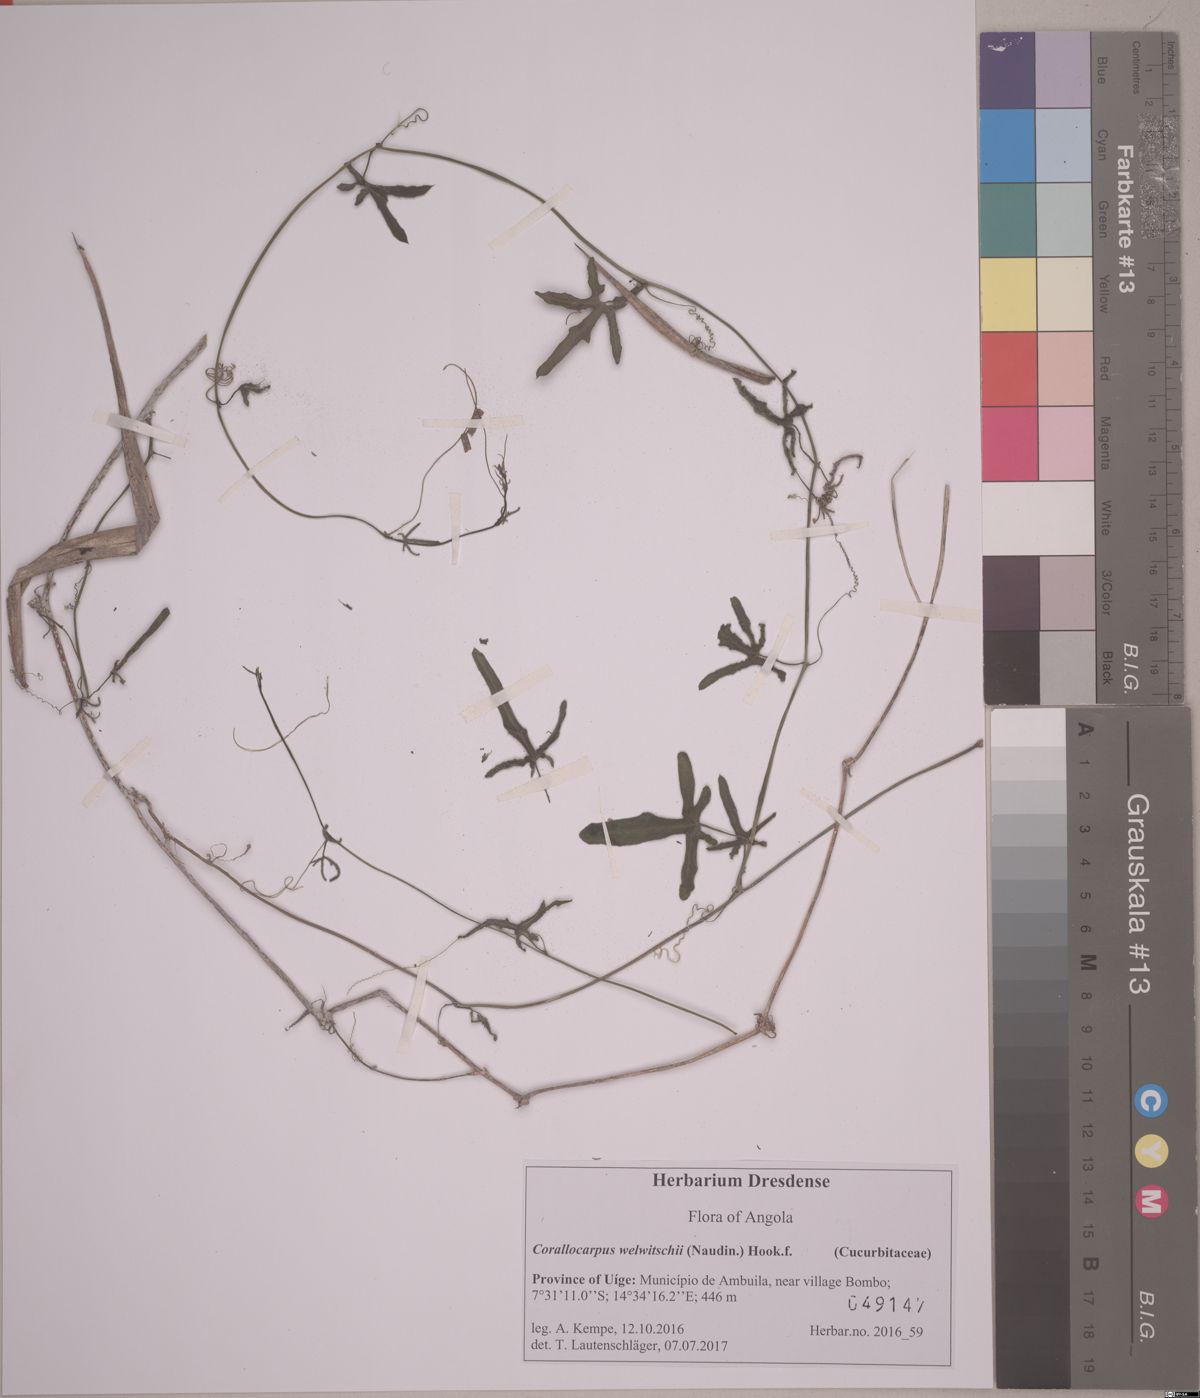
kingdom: Plantae
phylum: Tracheophyta
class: Magnoliopsida
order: Cucurbitales
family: Cucurbitaceae
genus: Corallocarpus
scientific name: Corallocarpus welwitschii
